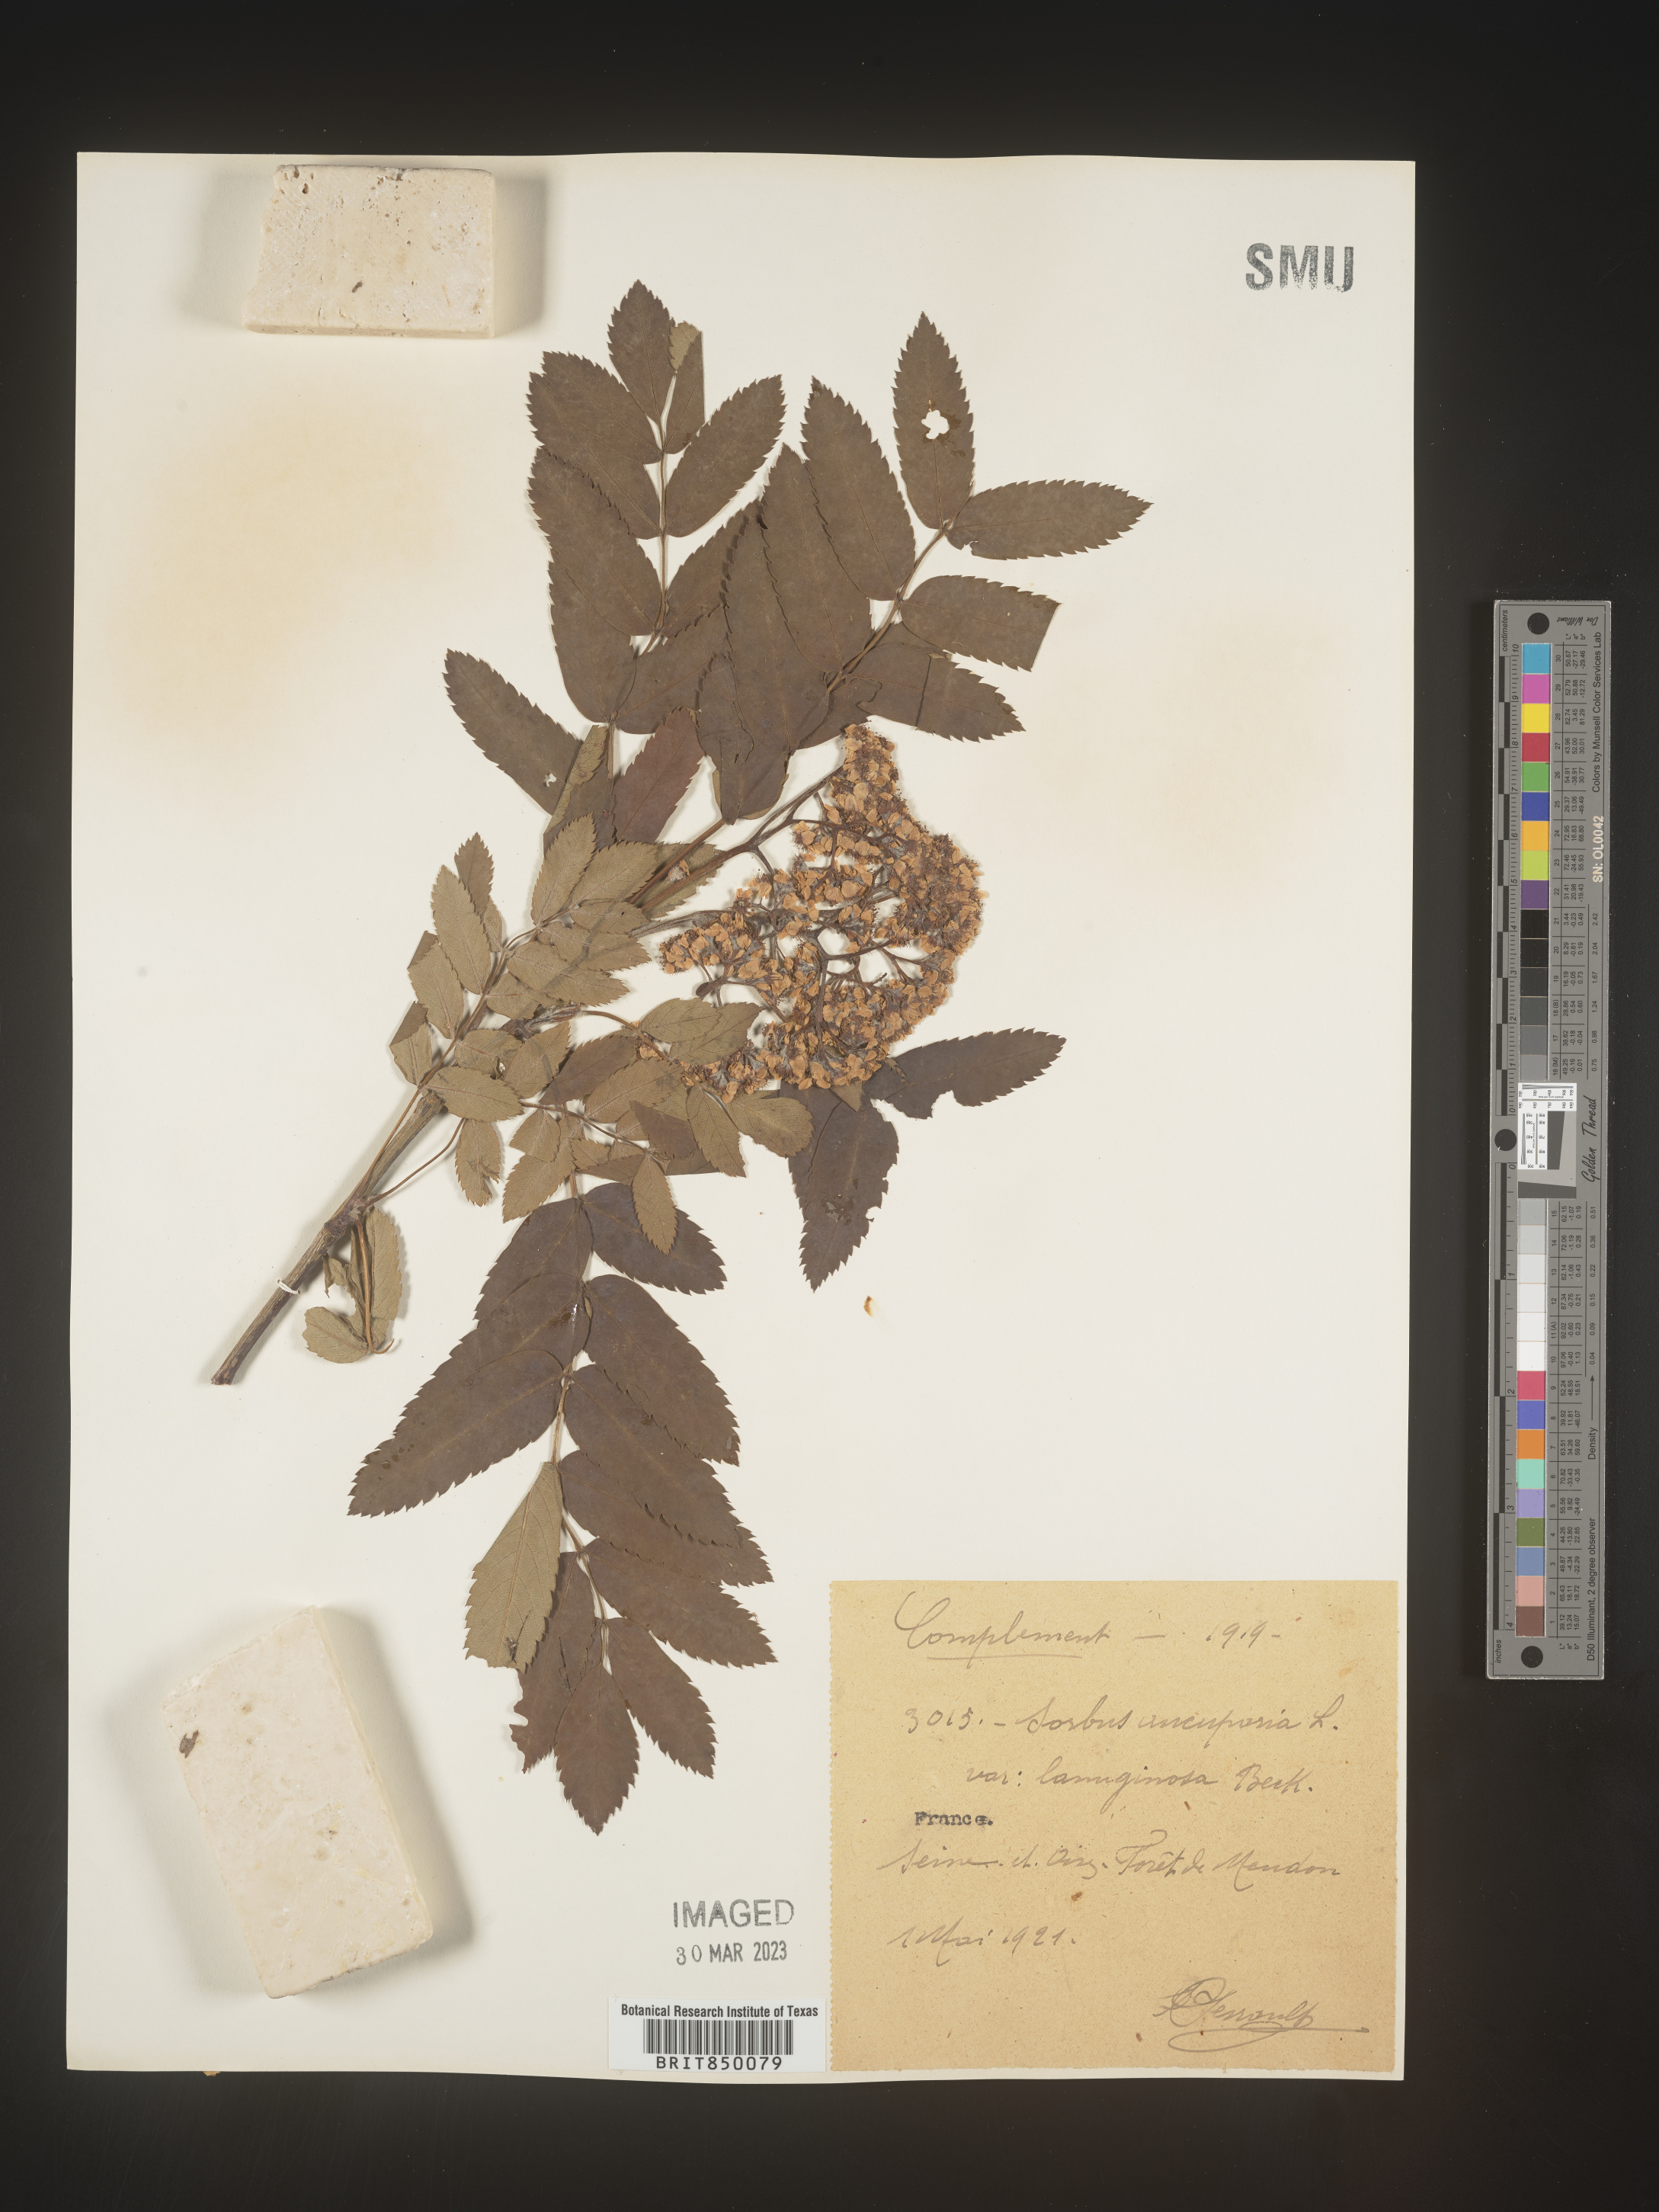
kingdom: Plantae
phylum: Tracheophyta
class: Magnoliopsida
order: Rosales
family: Rosaceae
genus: Sorbus
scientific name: Sorbus
